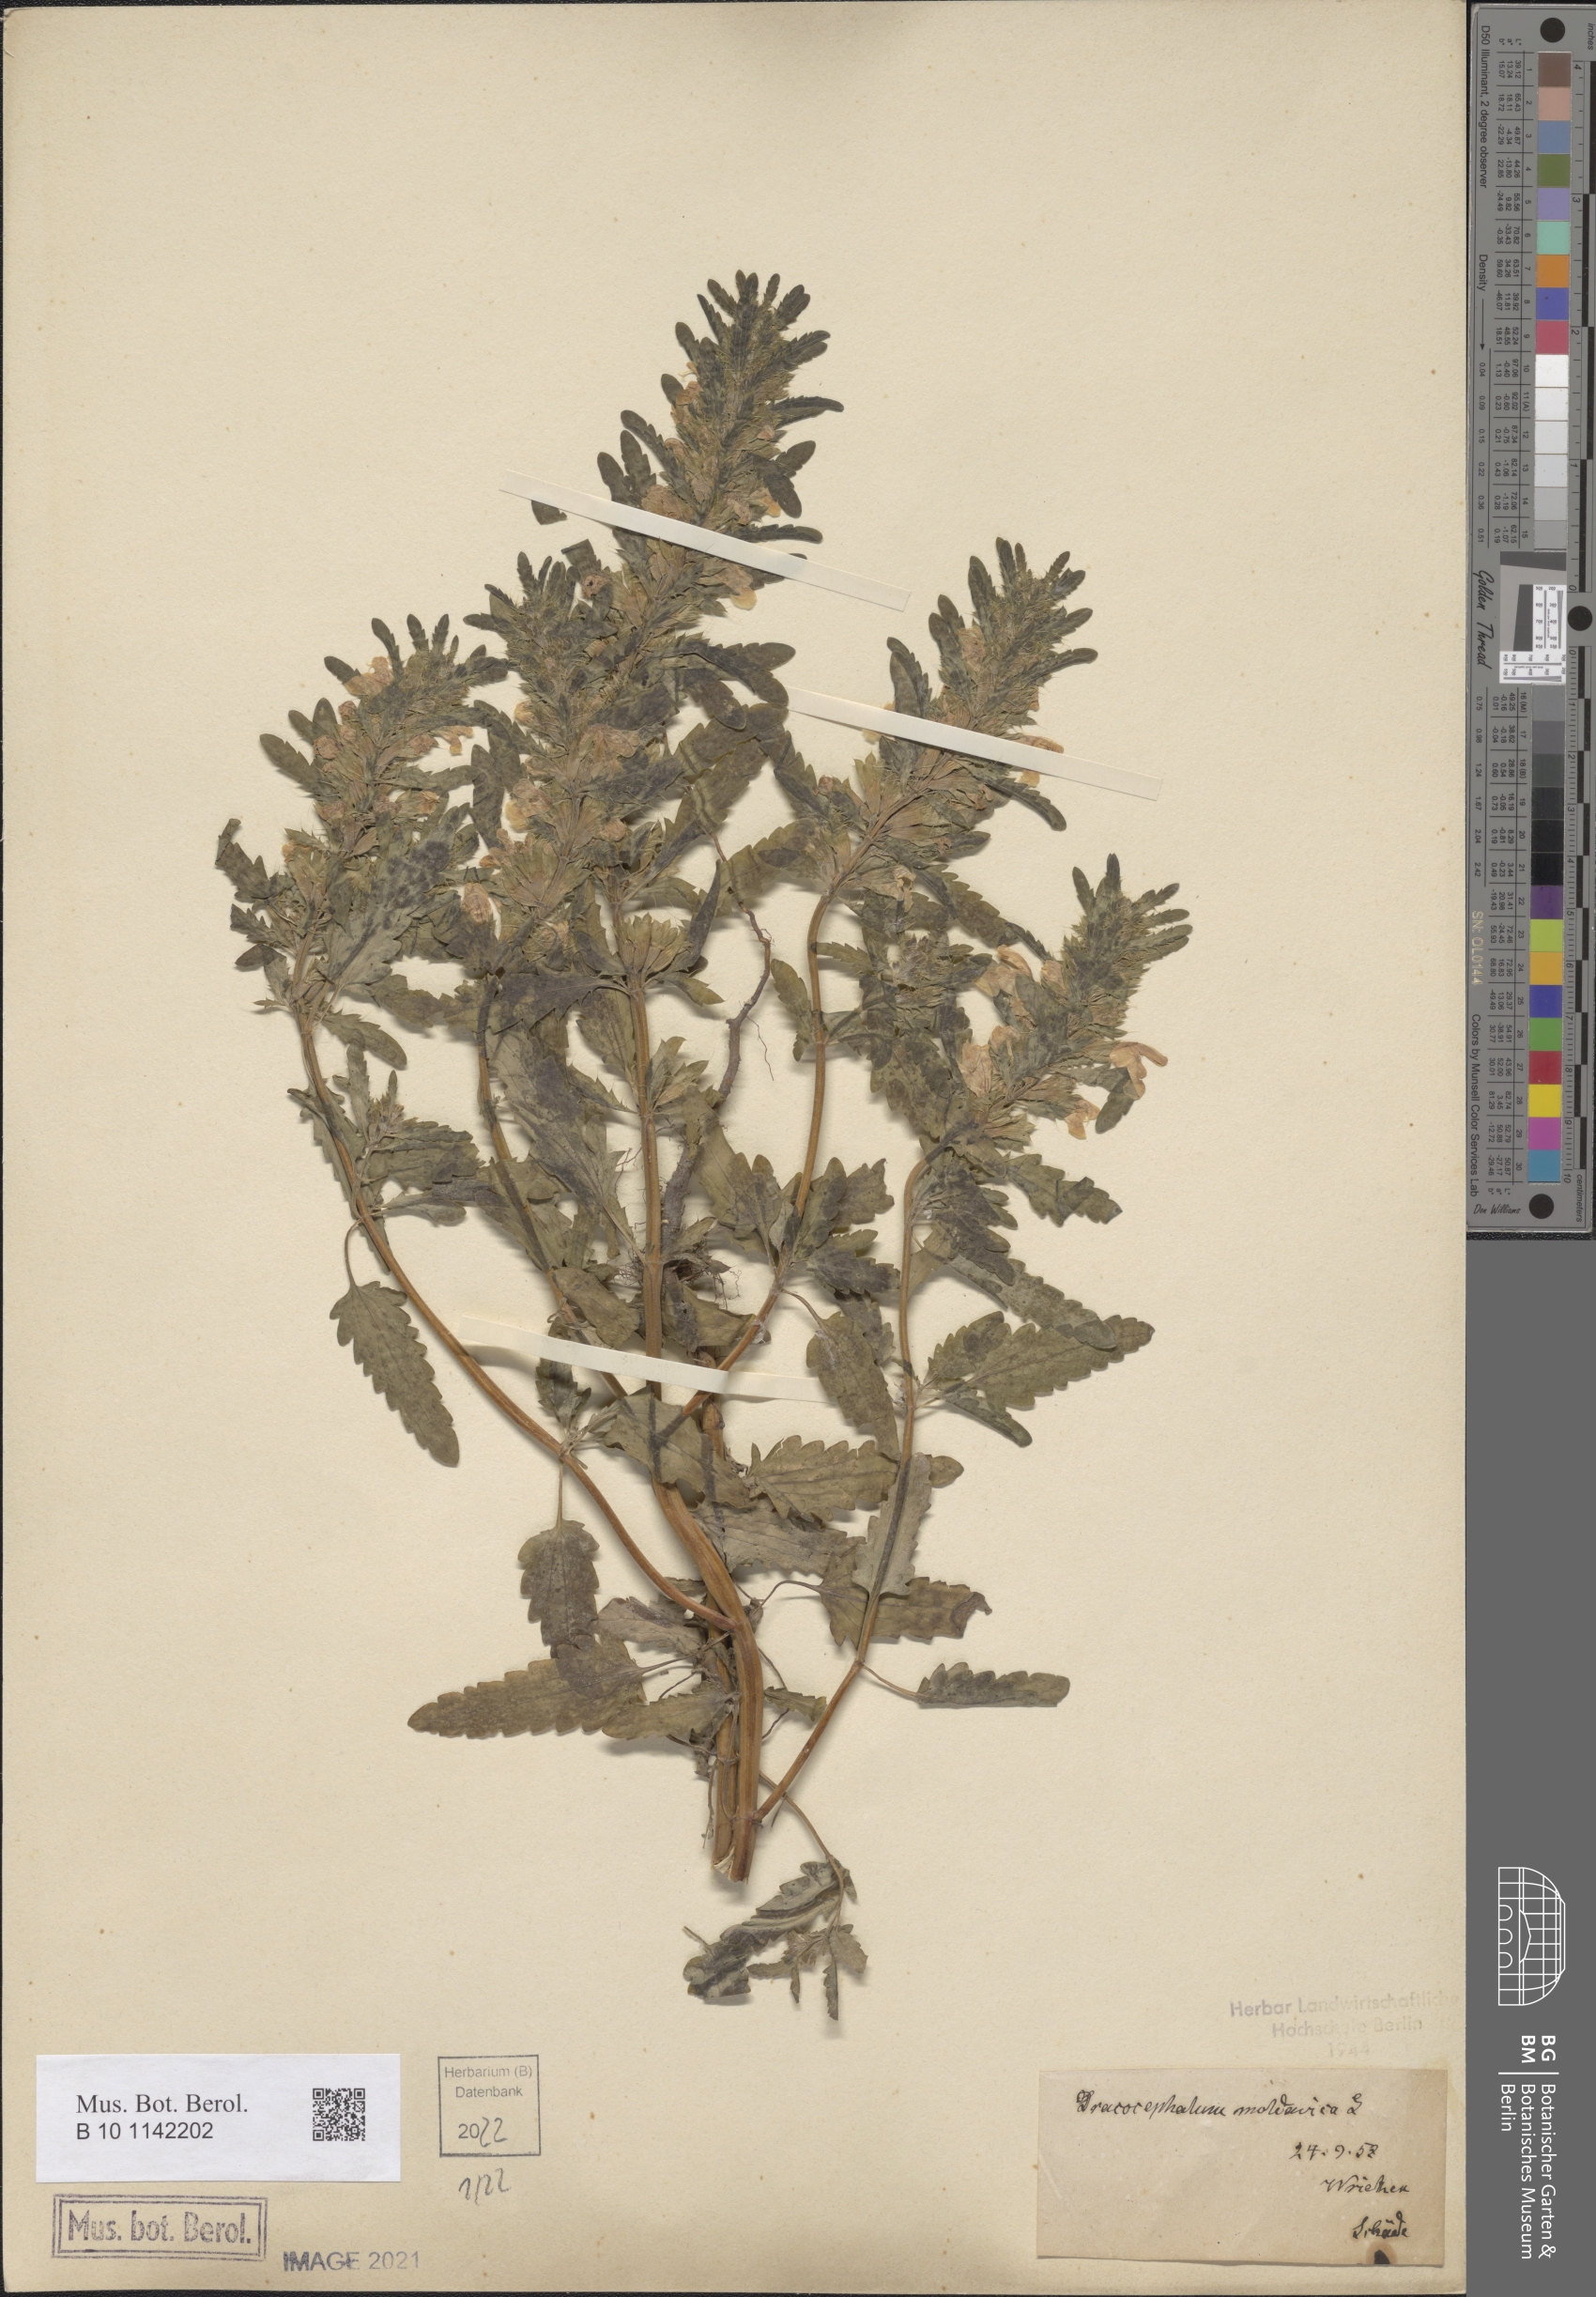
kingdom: Plantae
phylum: Tracheophyta
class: Magnoliopsida
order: Lamiales
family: Lamiaceae
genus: Dracocephalum
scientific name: Dracocephalum moldavica
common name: Moldavian dragonhead
